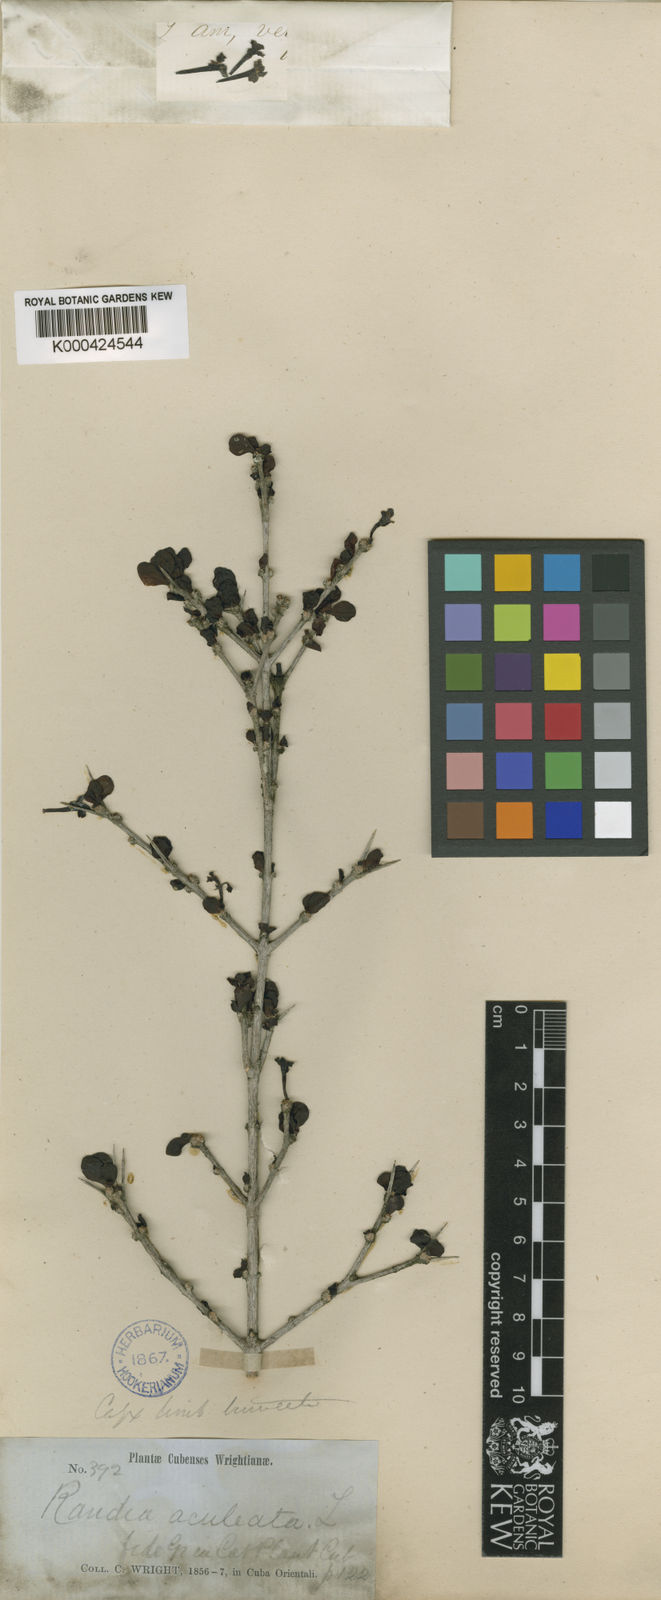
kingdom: Plantae
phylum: Tracheophyta
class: Magnoliopsida
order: Gentianales
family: Rubiaceae
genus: Randia
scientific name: Randia ciliolata
